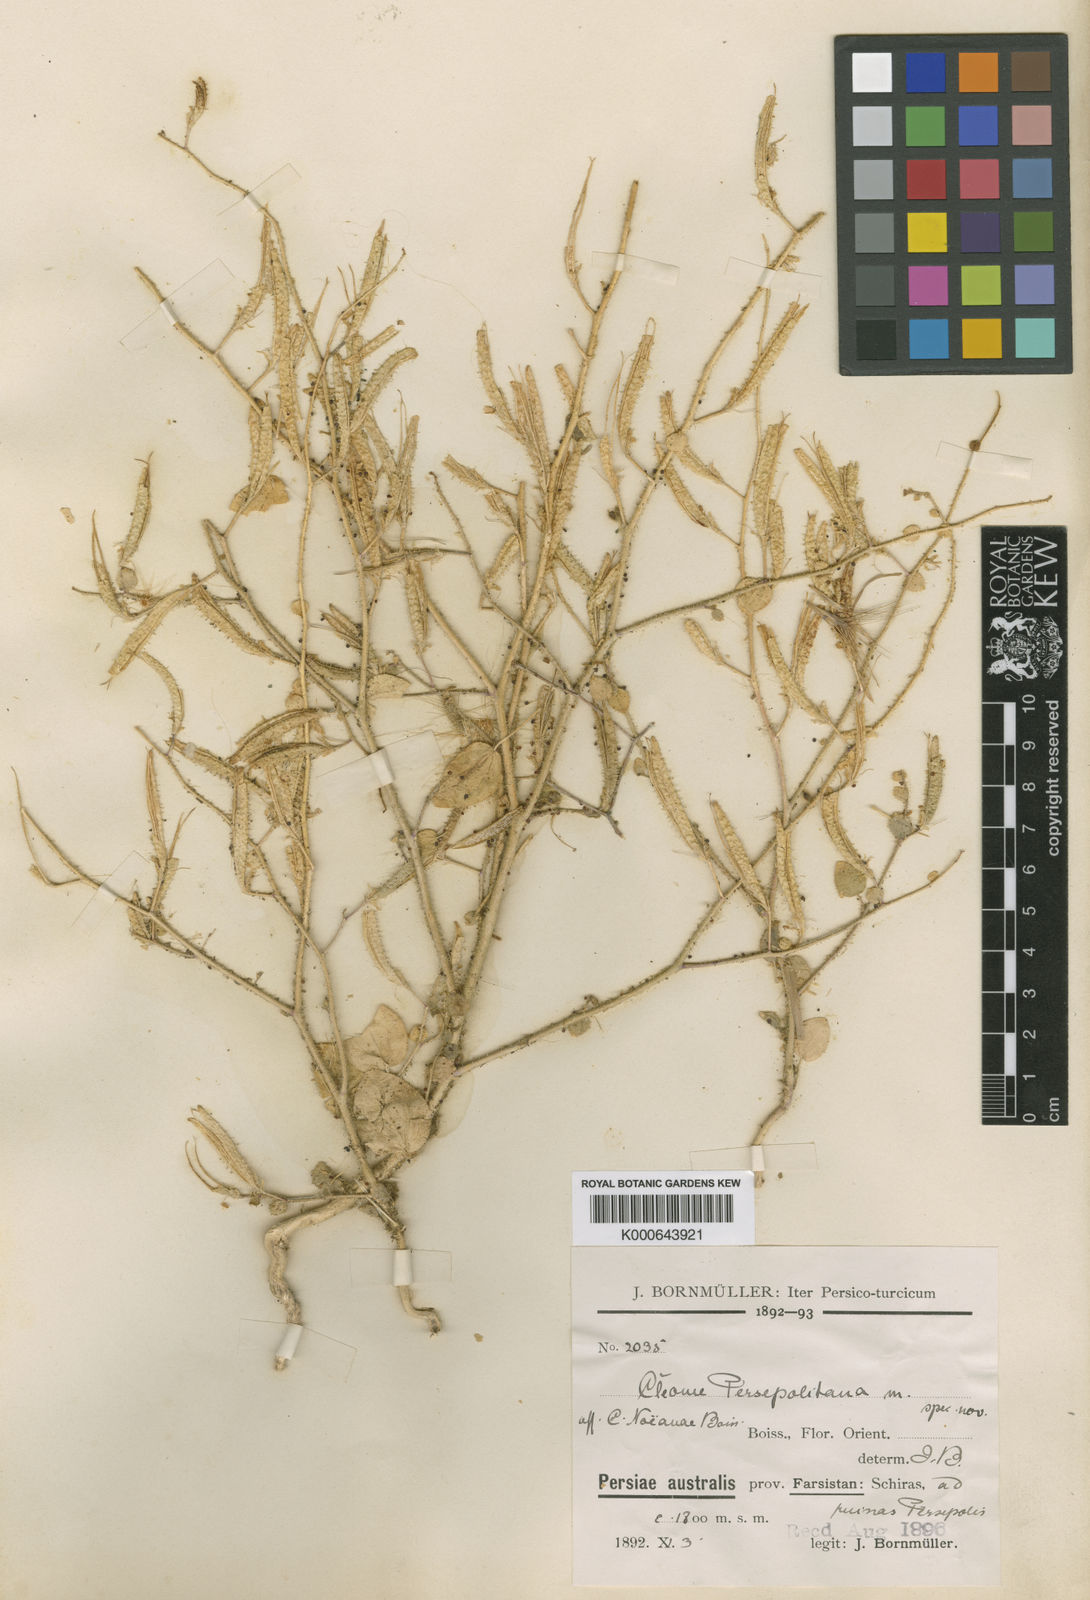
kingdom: Plantae
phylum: Tracheophyta
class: Magnoliopsida
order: Brassicales
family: Cleomaceae
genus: Rorida
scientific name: Rorida quinquenervia
